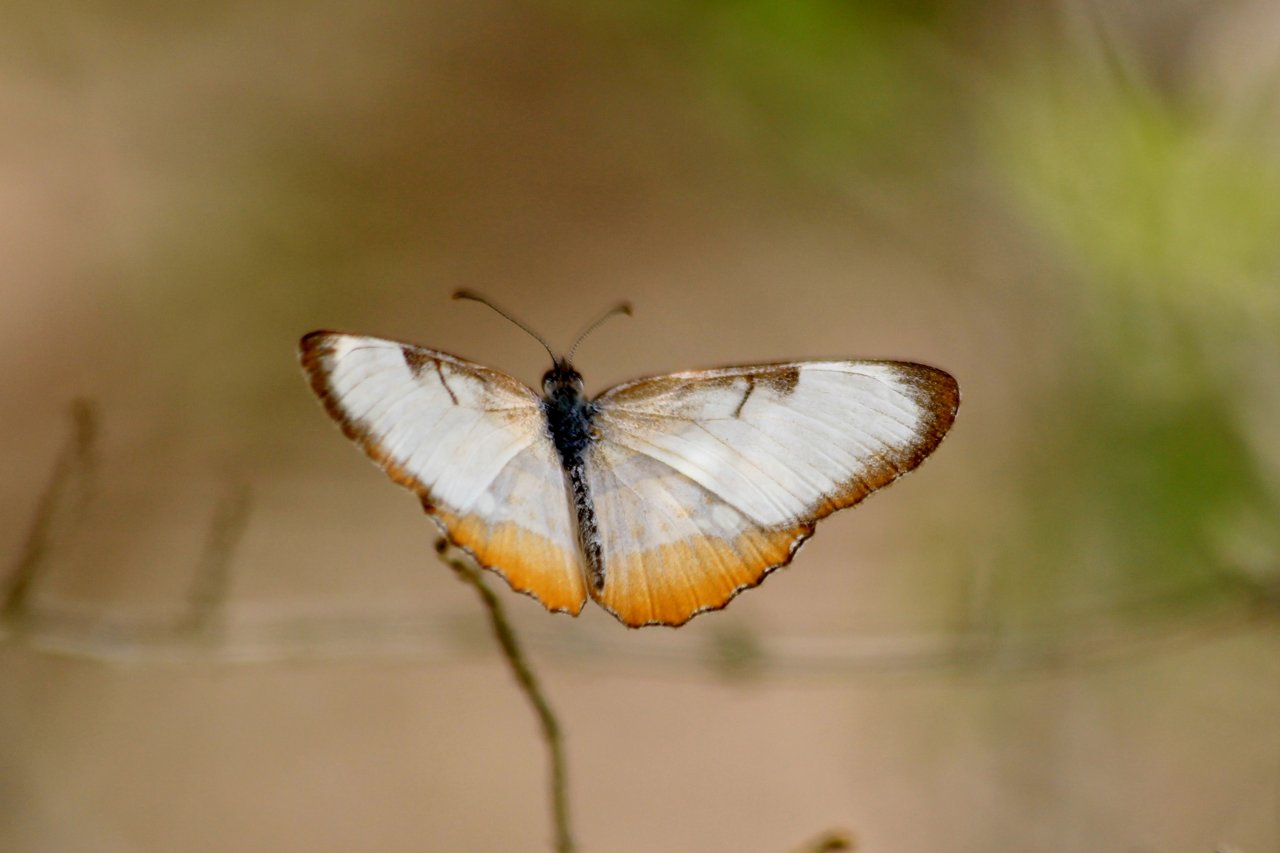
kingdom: Animalia
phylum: Arthropoda
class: Insecta
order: Lepidoptera
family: Nymphalidae
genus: Mestra
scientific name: Mestra amymone
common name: Common Mestra
